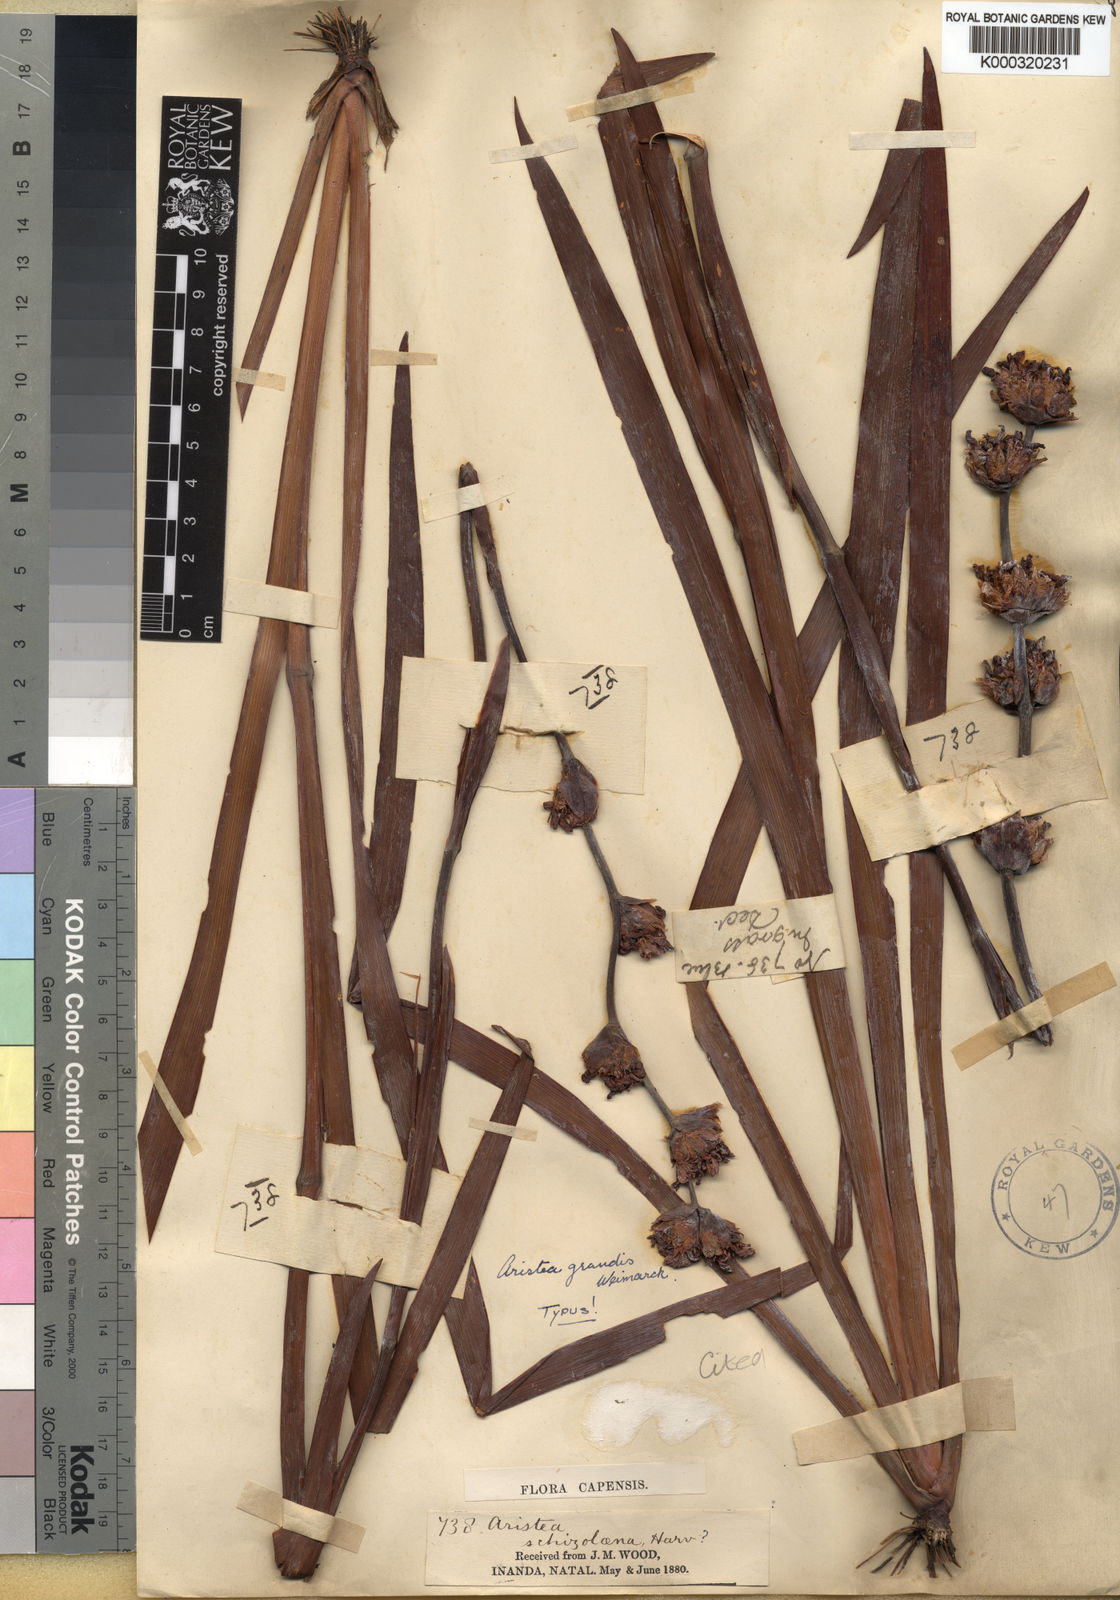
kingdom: Plantae
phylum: Tracheophyta
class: Liliopsida
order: Asparagales
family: Iridaceae
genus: Aristea
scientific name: Aristea grandis
